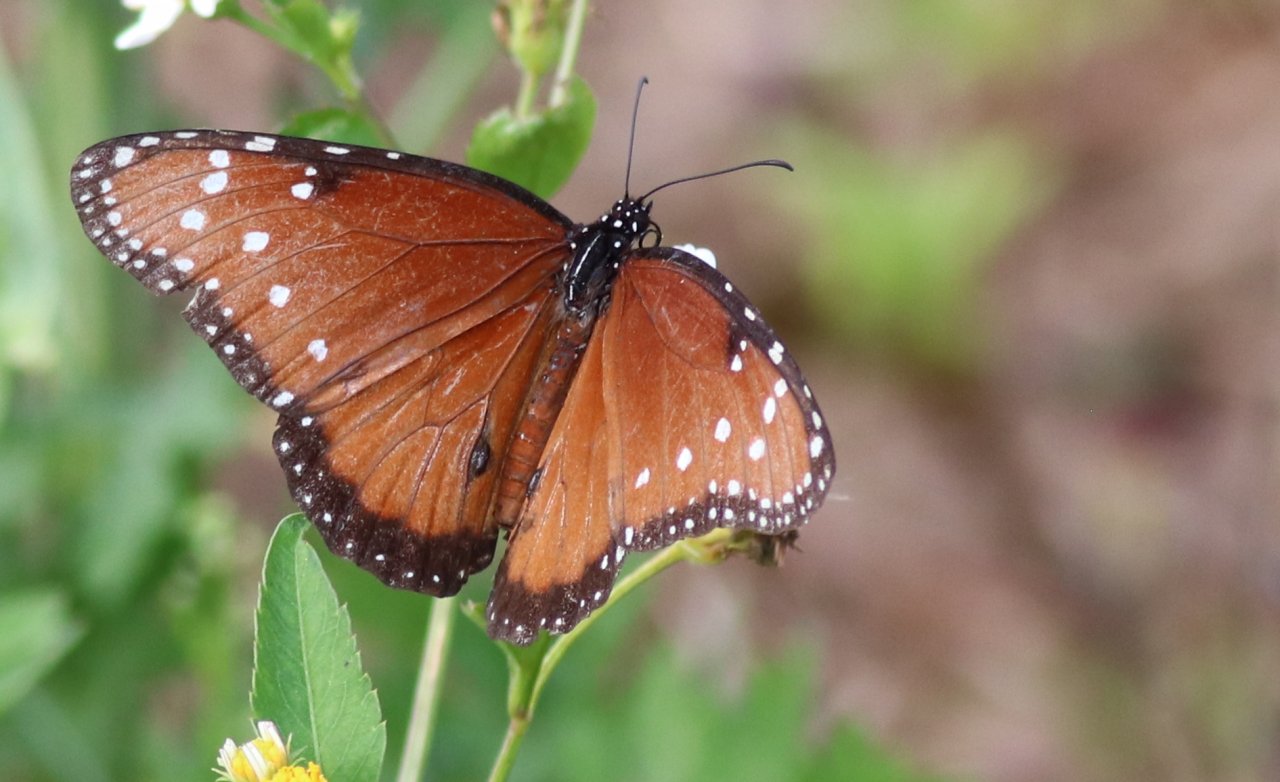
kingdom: Animalia
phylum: Arthropoda
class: Insecta
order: Lepidoptera
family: Nymphalidae
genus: Danaus
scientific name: Danaus gilippus
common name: Queen
